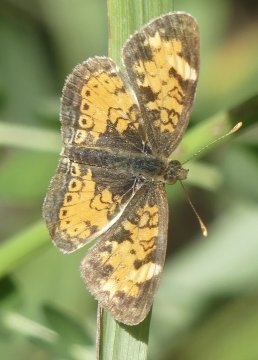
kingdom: Animalia
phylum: Arthropoda
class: Insecta
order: Lepidoptera
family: Nymphalidae
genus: Phyciodes
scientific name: Phyciodes
